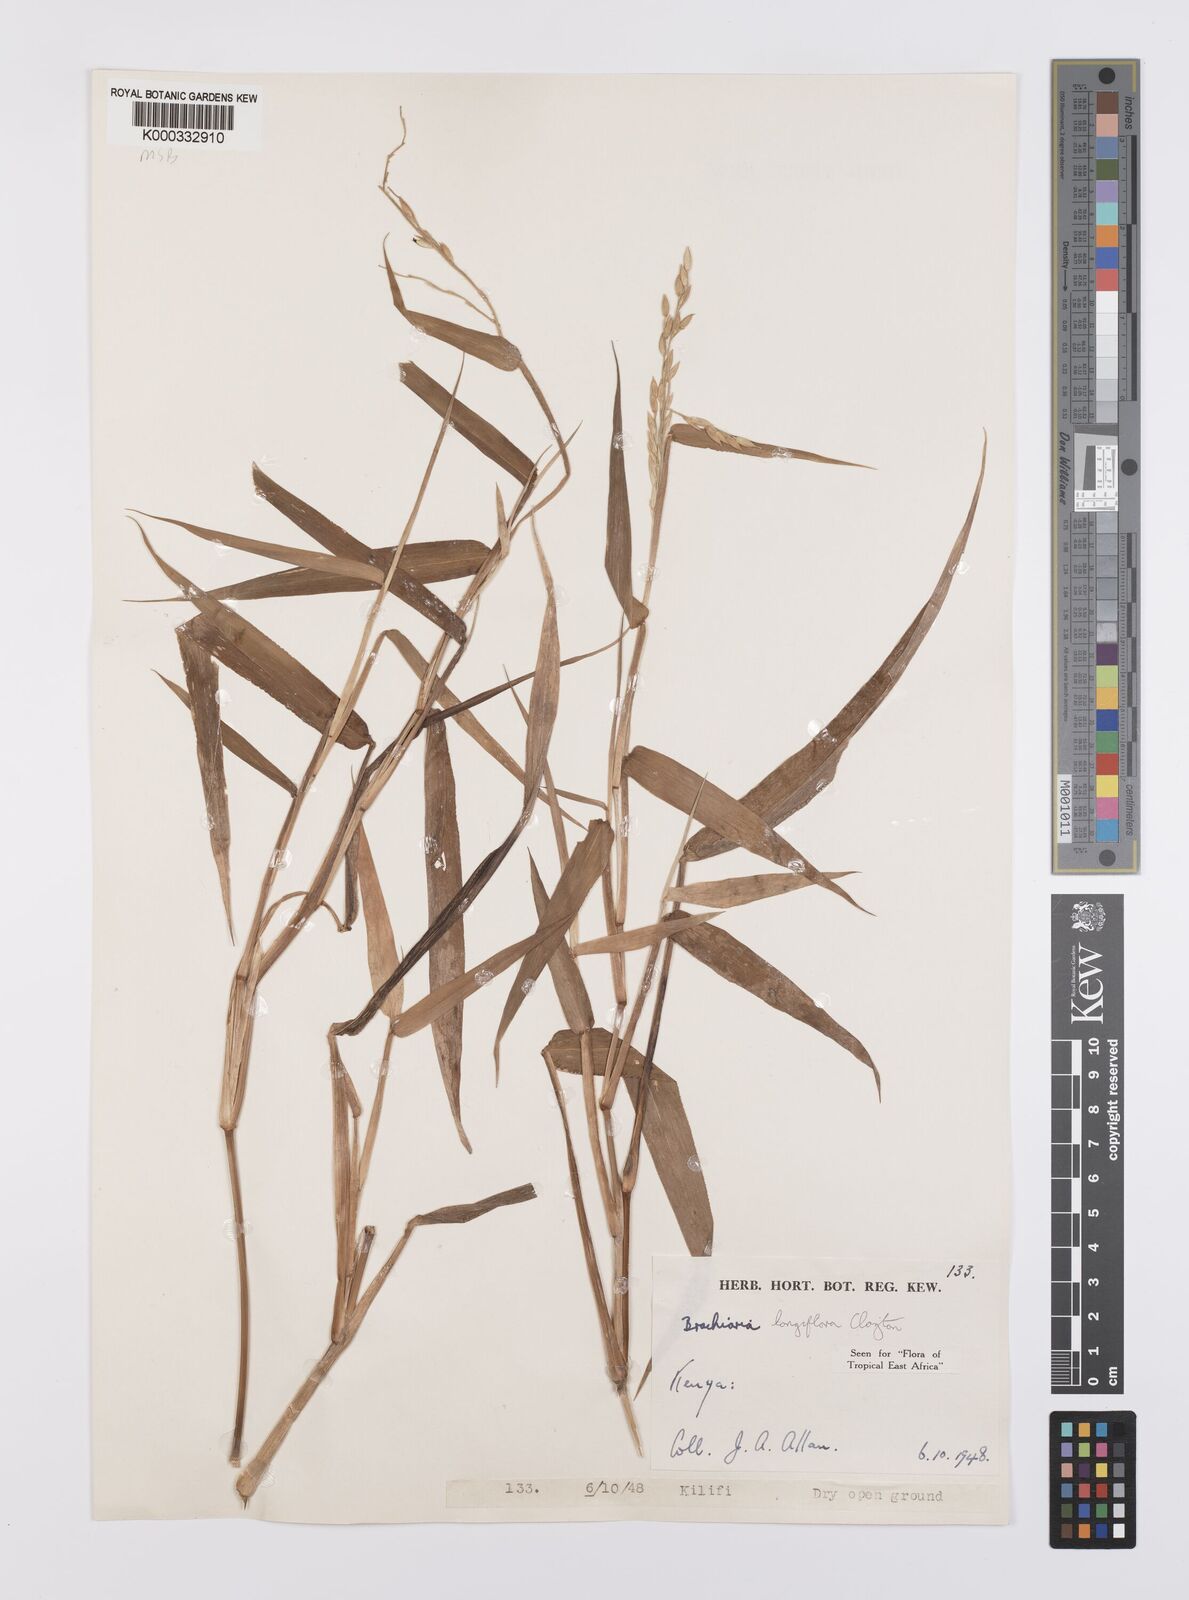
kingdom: Plantae
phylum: Tracheophyta
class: Liliopsida
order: Poales
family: Poaceae
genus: Urochloa
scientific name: Urochloa Brachiaria longiflora
